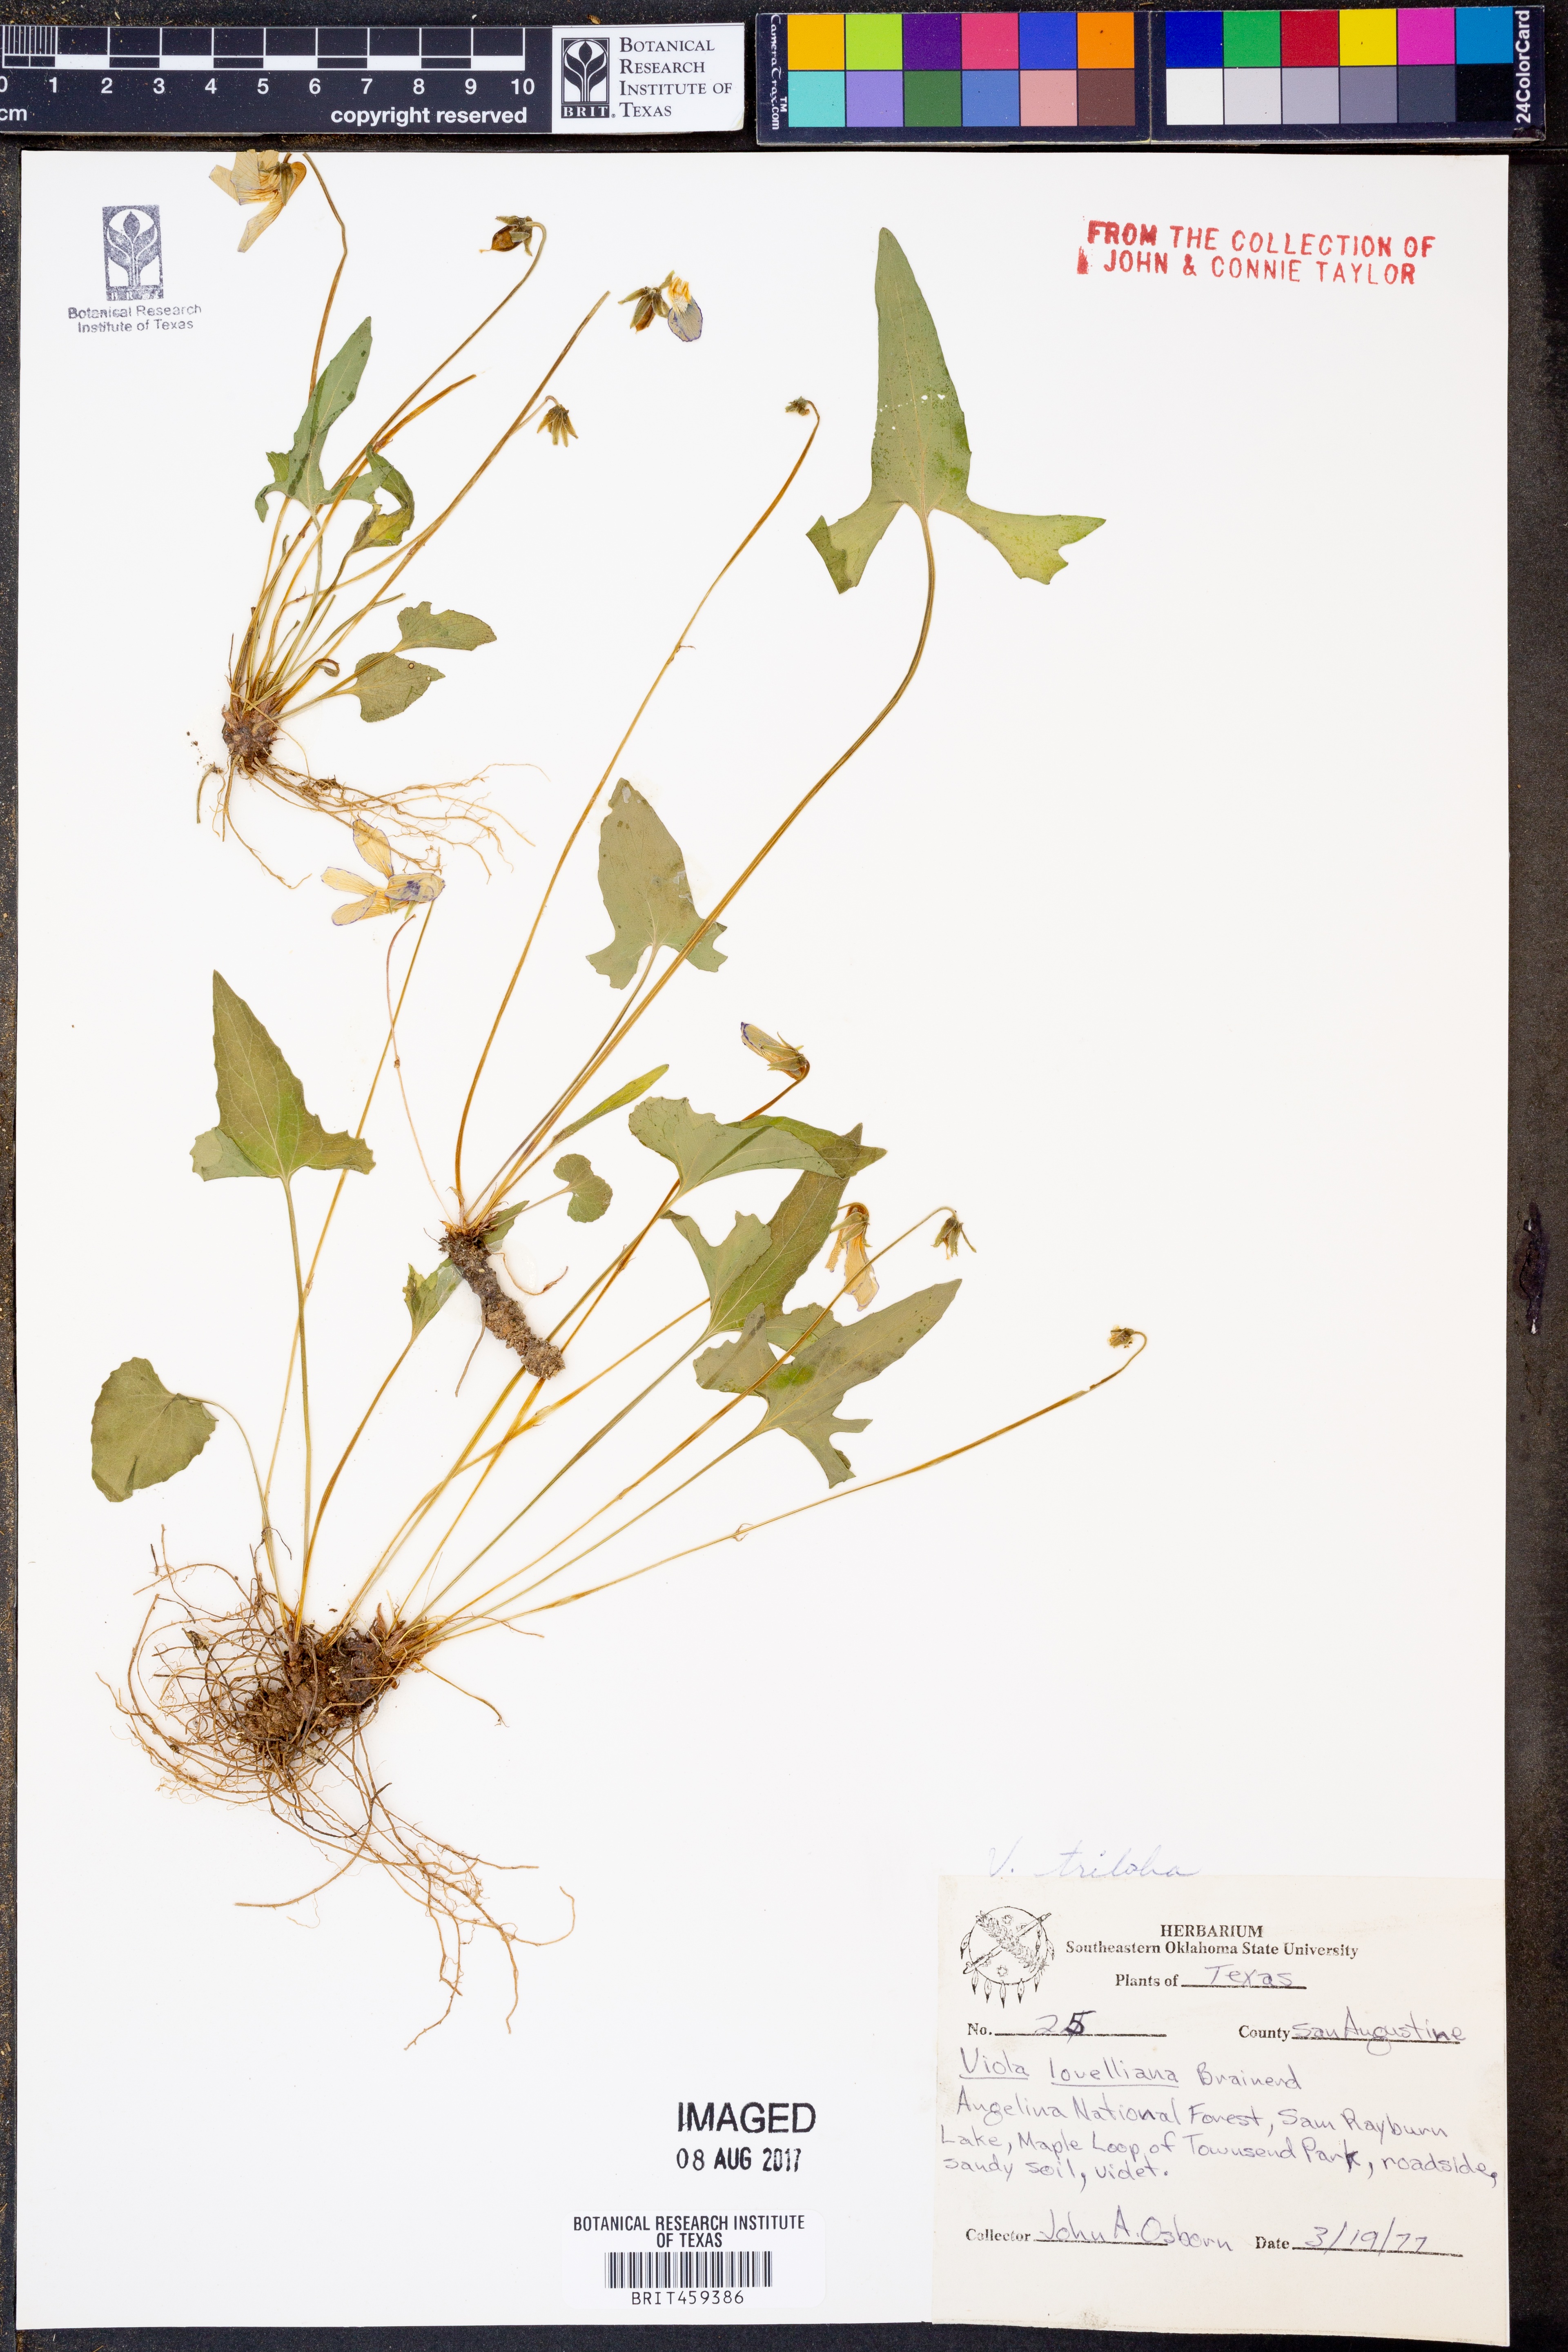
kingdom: Plantae
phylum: Tracheophyta
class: Magnoliopsida
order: Malpighiales
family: Violaceae
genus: Viola
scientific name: Viola palmata
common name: Early blue violet
